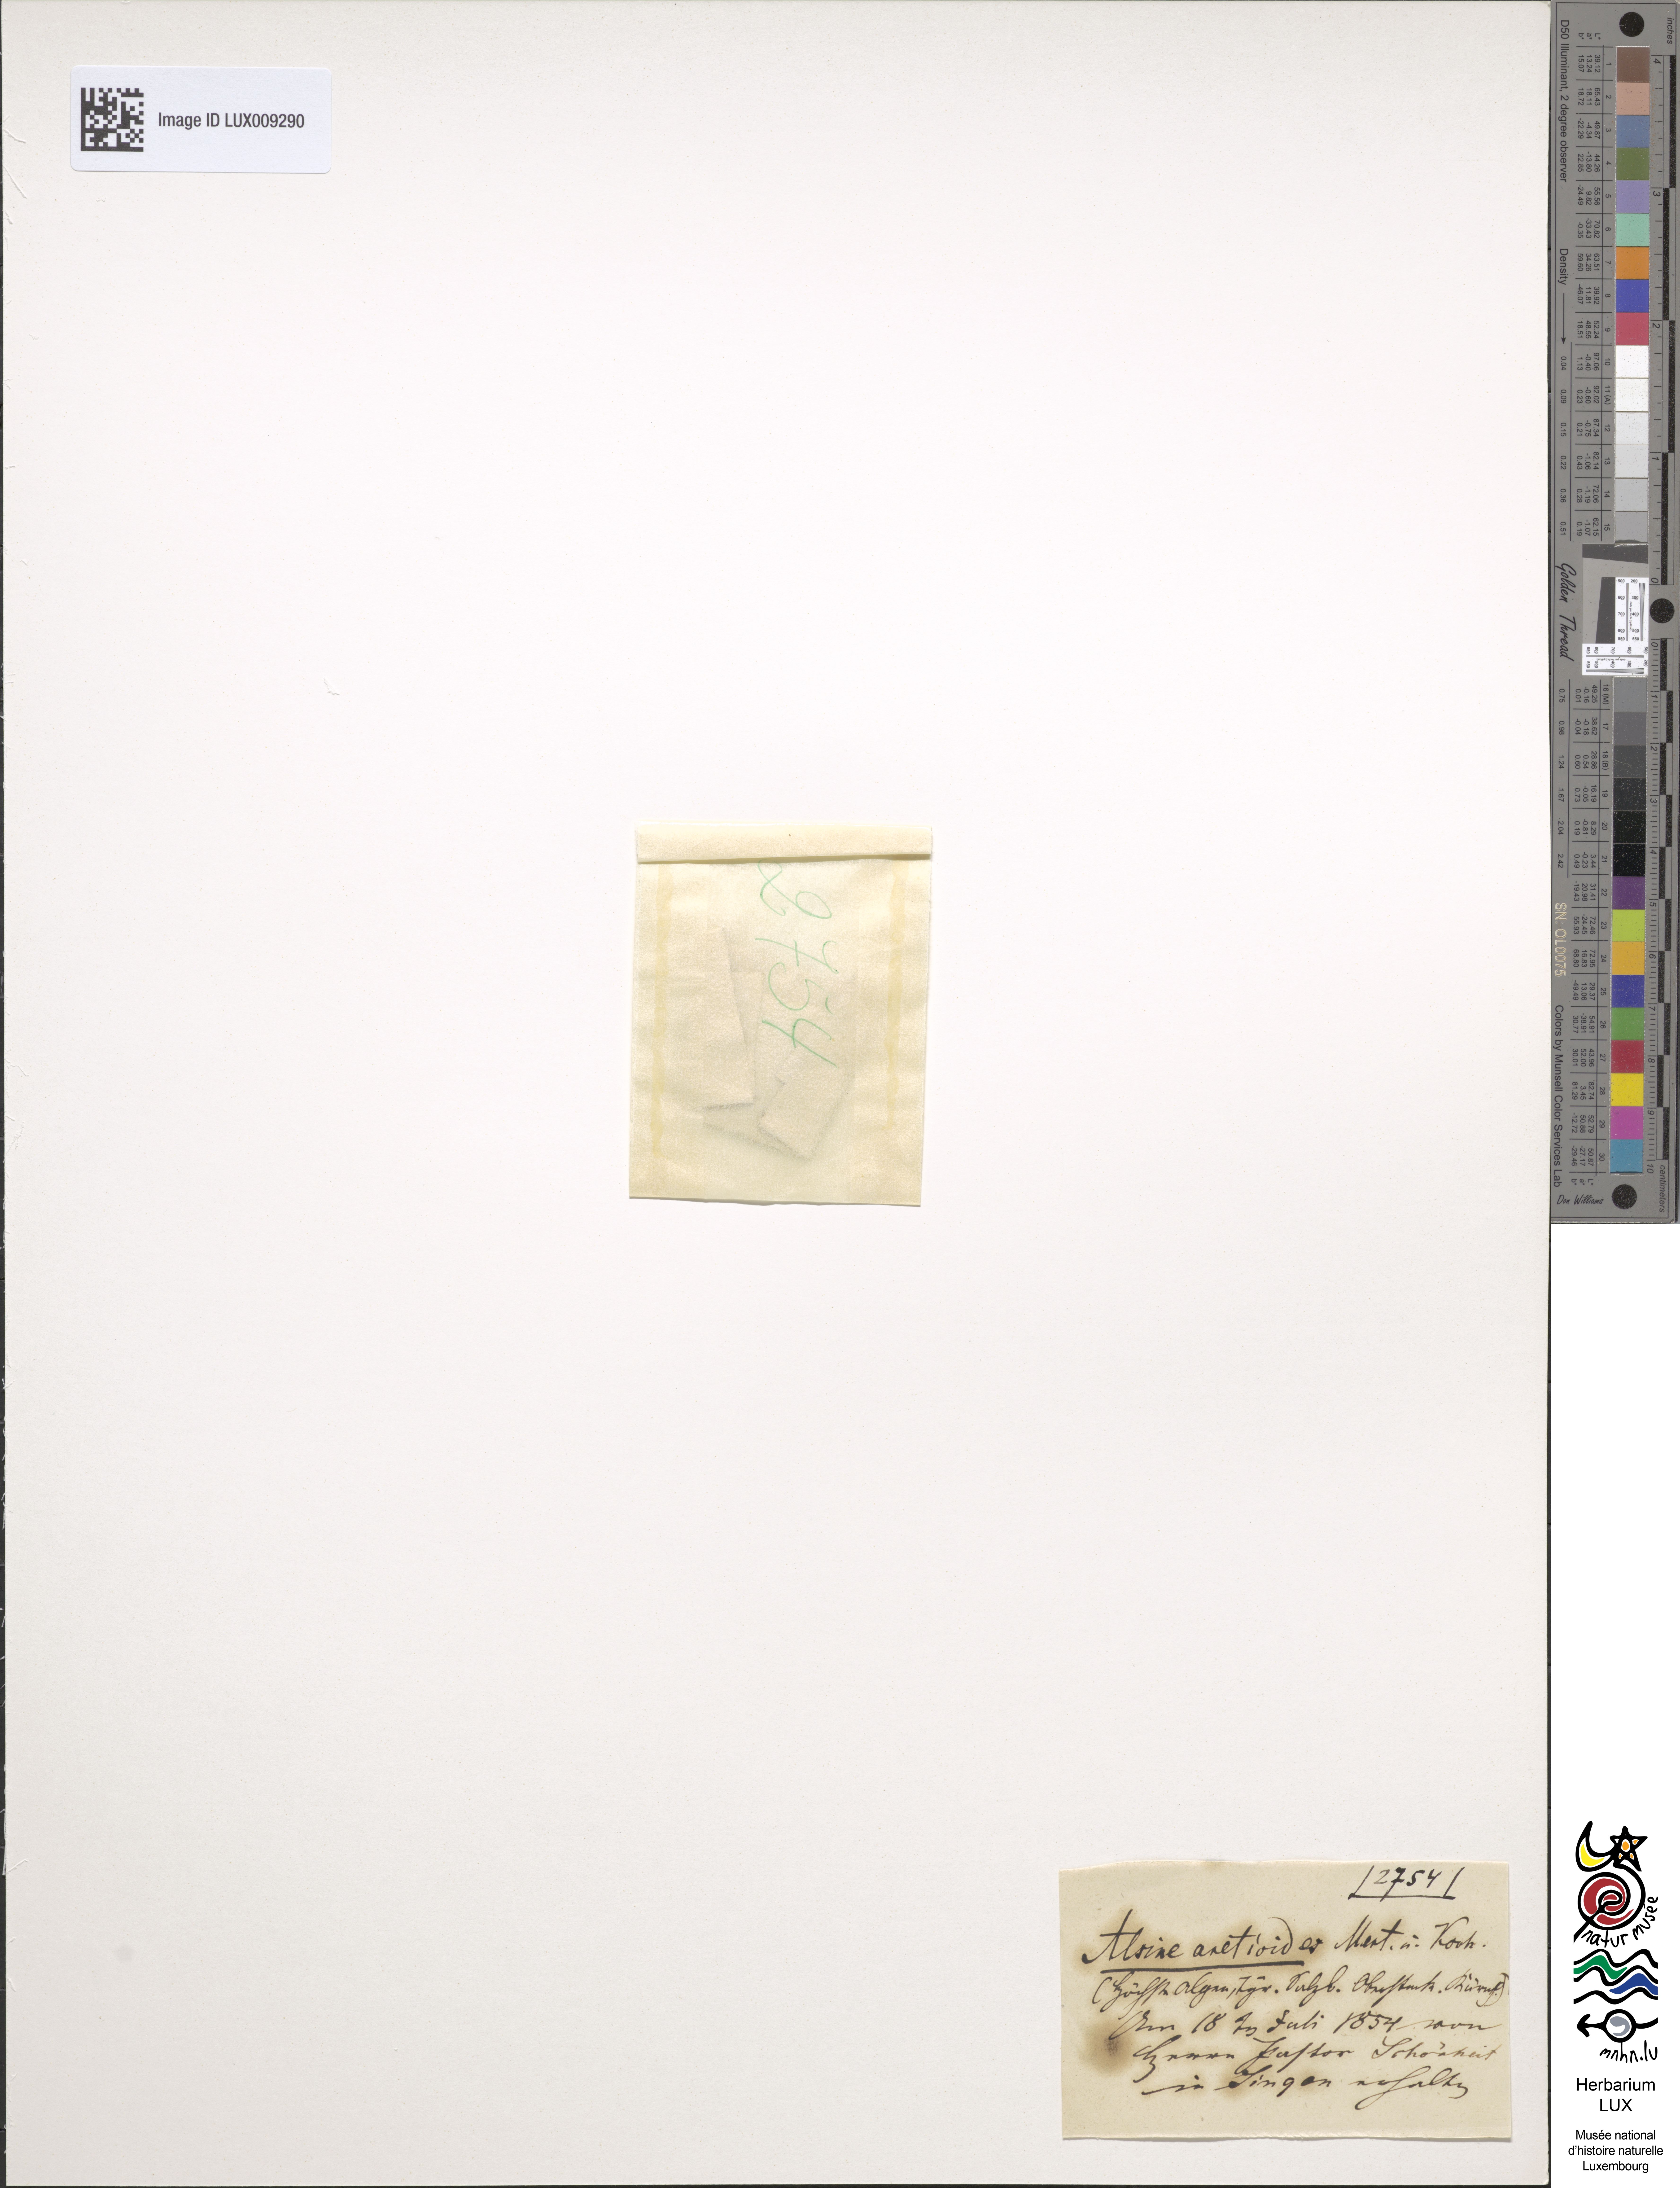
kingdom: Plantae
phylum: Tracheophyta
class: Magnoliopsida
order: Caryophyllales
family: Caryophyllaceae
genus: Facchinia
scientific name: Facchinia cherlerioides
